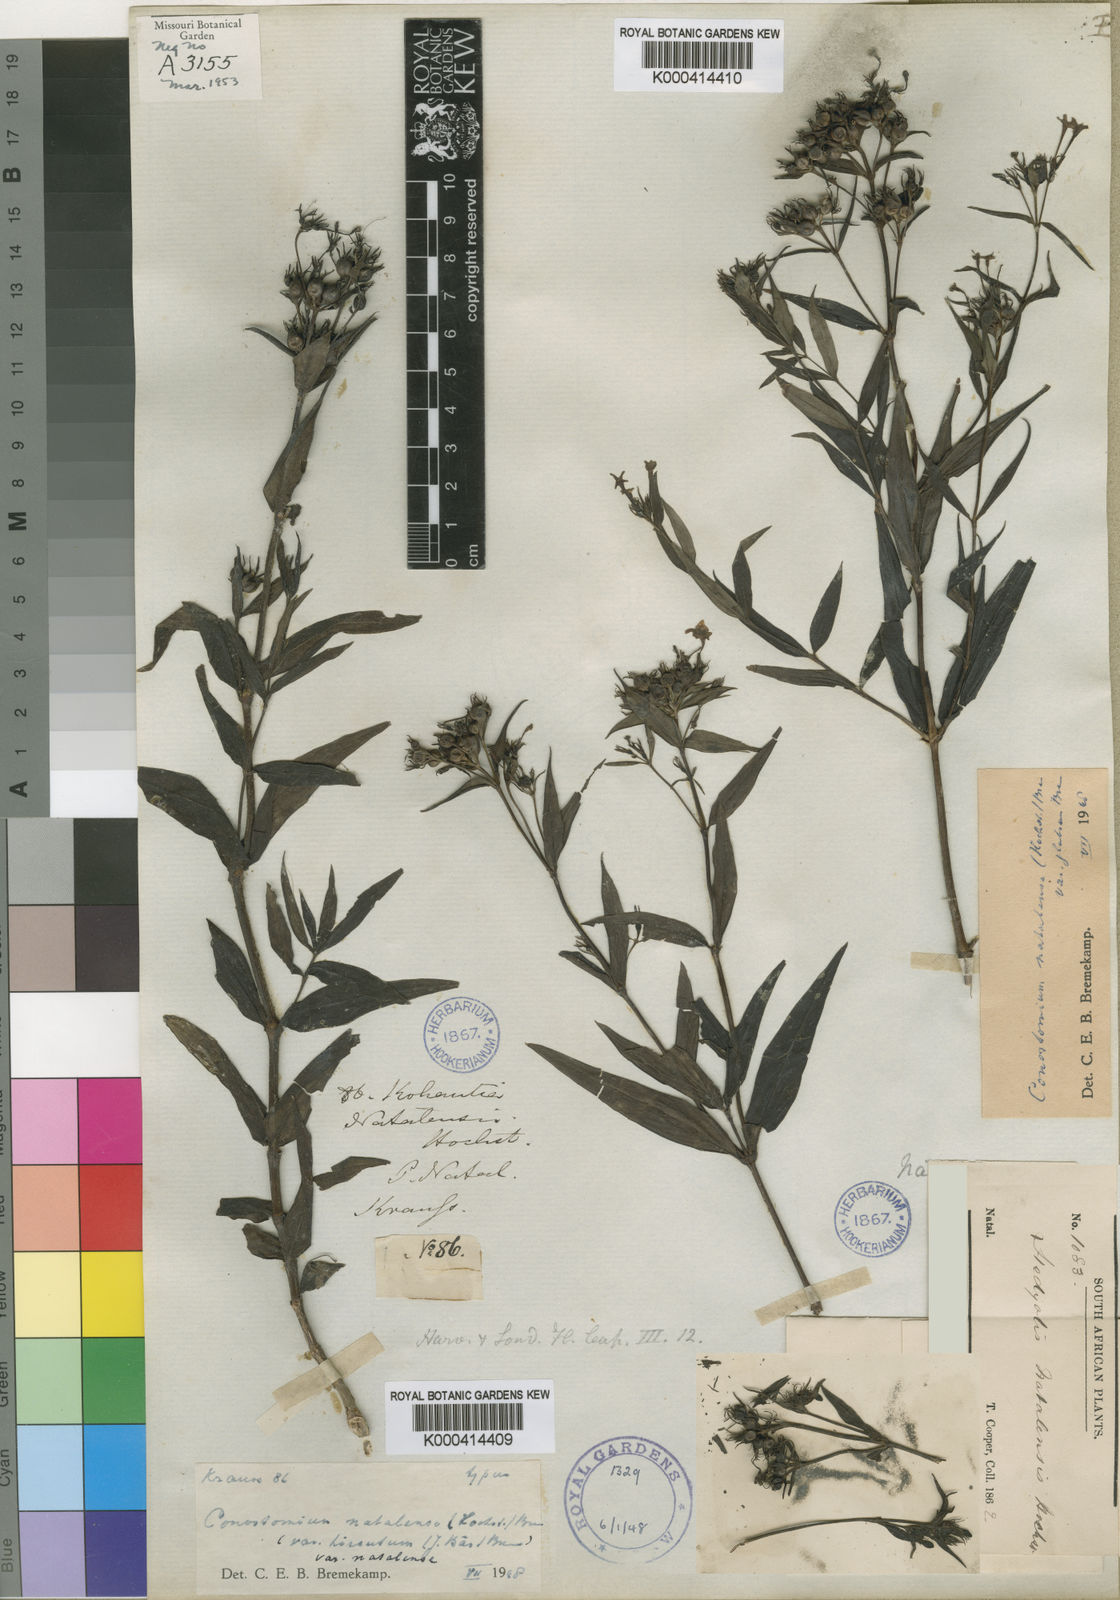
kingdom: Plantae
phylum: Tracheophyta
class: Magnoliopsida
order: Gentianales
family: Rubiaceae
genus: Conostomium
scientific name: Conostomium natalense
